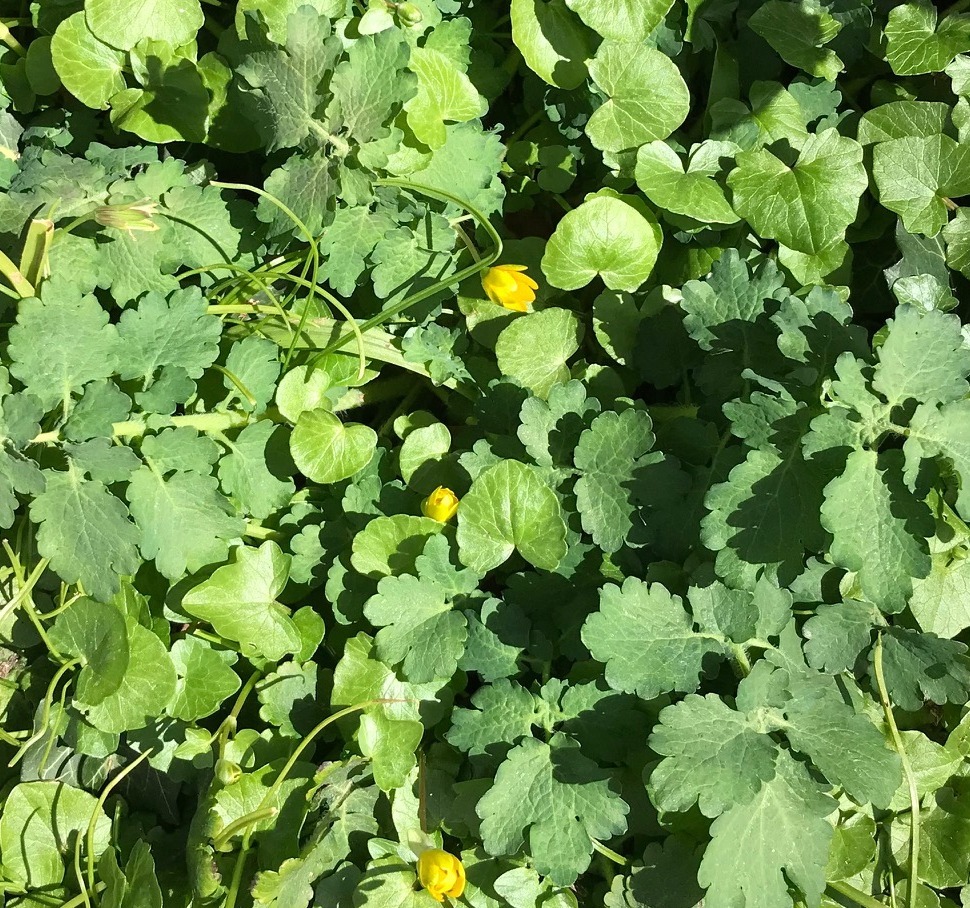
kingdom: Plantae
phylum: Tracheophyta
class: Magnoliopsida
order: Ranunculales
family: Papaveraceae
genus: Chelidonium
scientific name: Chelidonium majus
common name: Svaleurt
